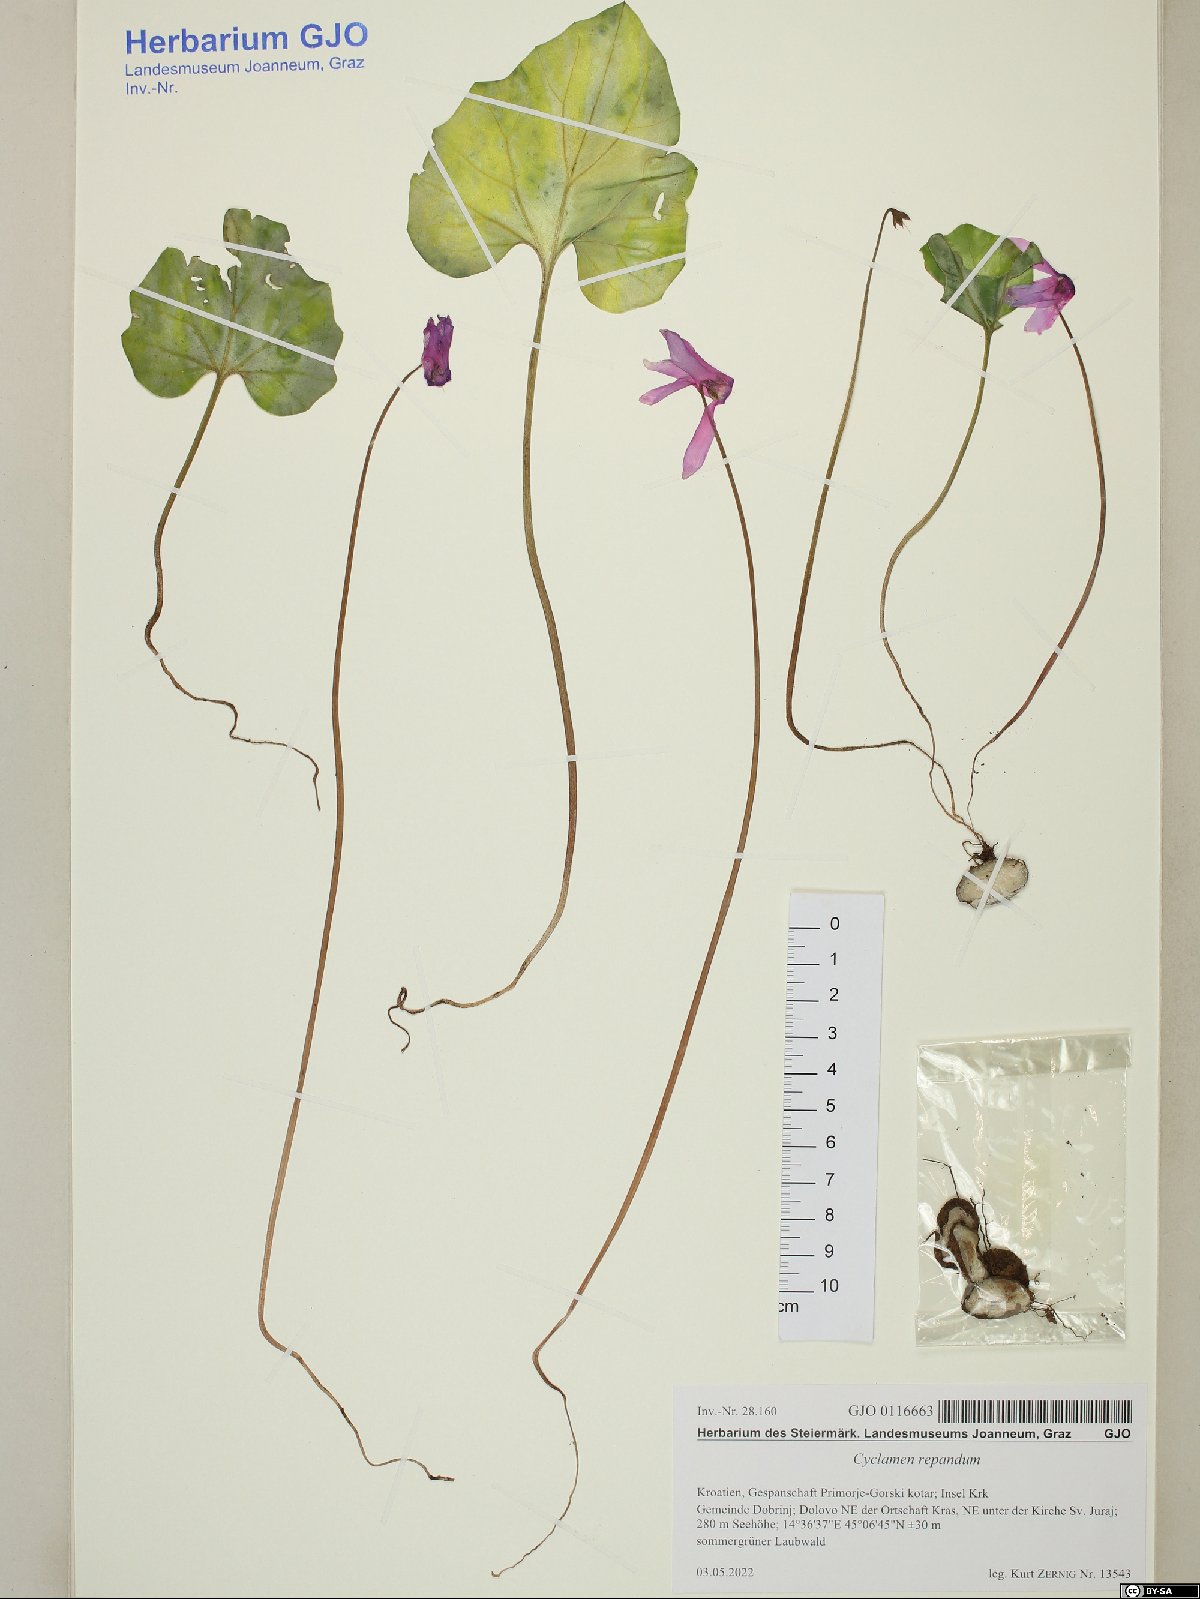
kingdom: Plantae
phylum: Tracheophyta
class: Magnoliopsida
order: Ericales
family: Primulaceae
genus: Cyclamen
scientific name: Cyclamen repandum
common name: Spring sowbread
